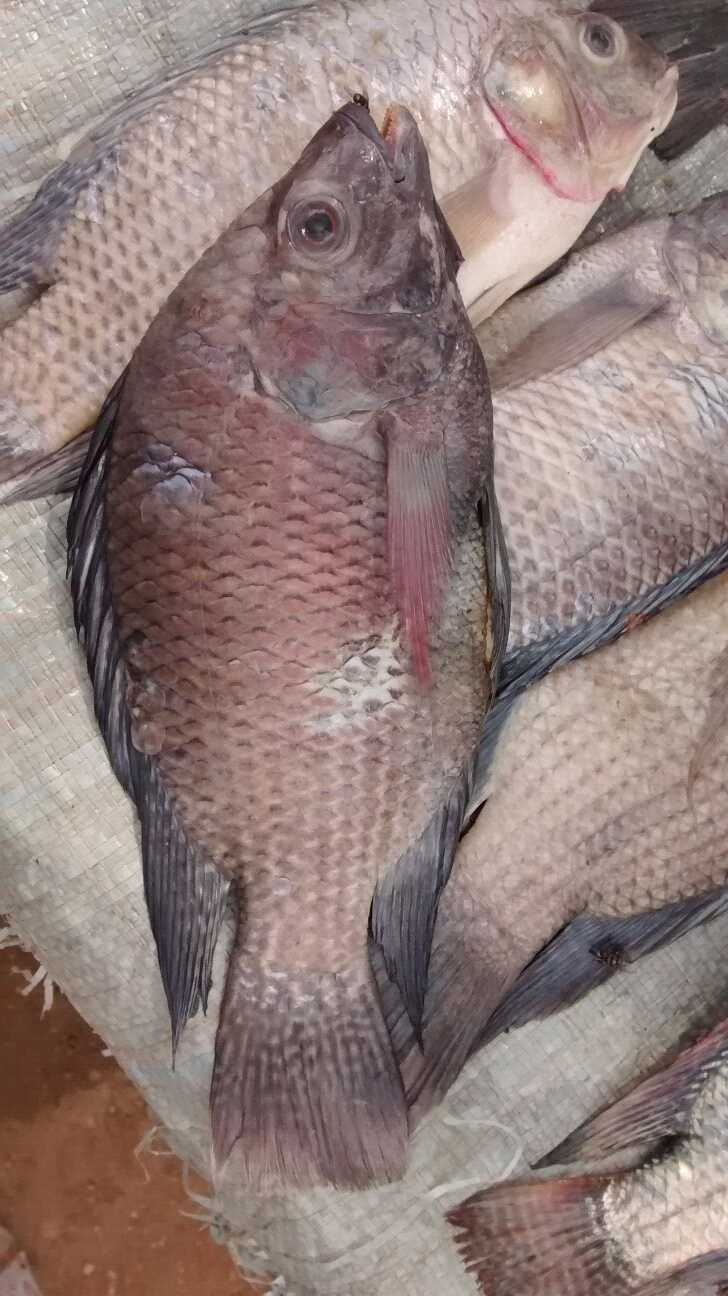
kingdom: Animalia
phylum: Chordata
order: Perciformes
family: Cichlidae
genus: Oreochromis
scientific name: Oreochromis niloticus
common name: Nile tilapia
